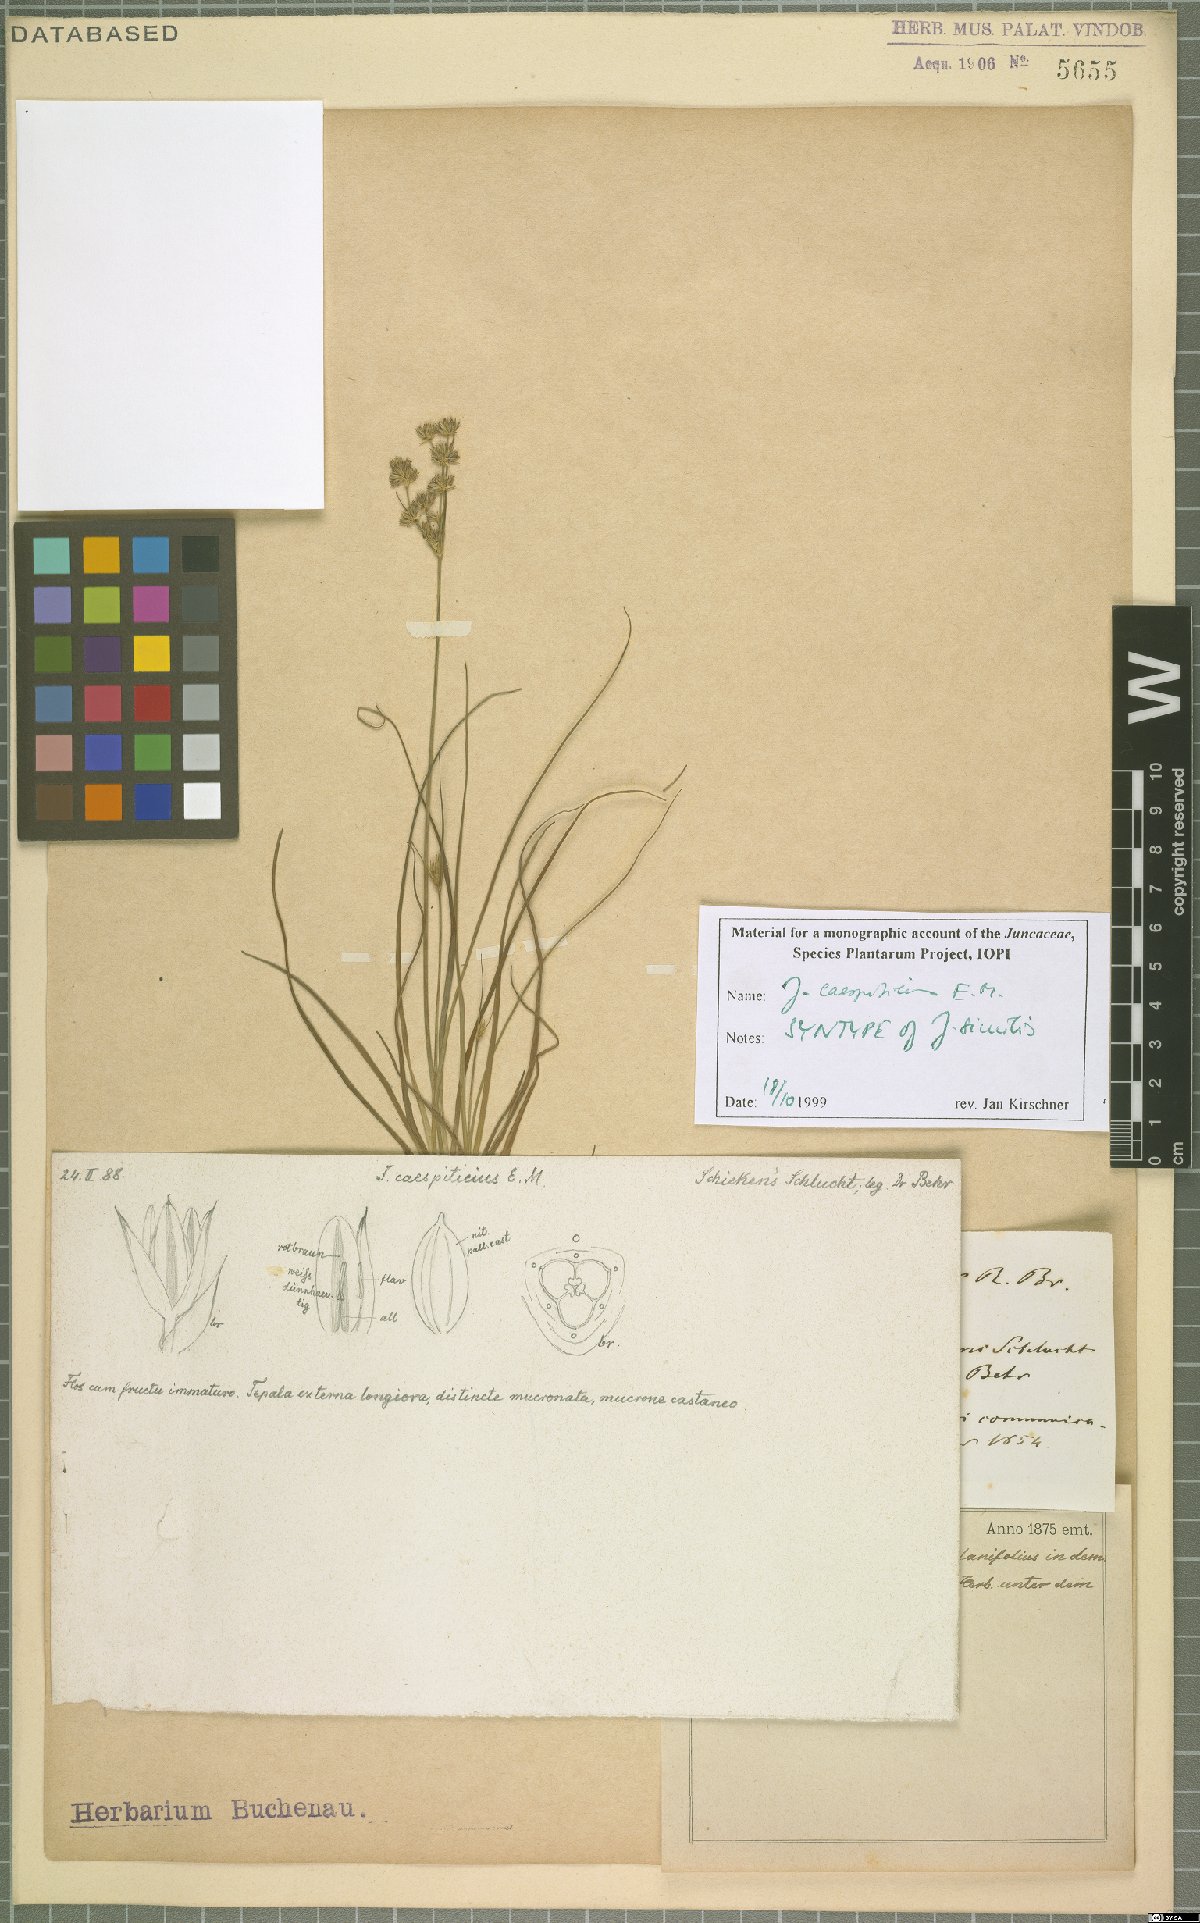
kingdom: Plantae
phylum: Tracheophyta
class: Liliopsida
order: Poales
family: Juncaceae
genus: Juncus
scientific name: Juncus caespiticius
